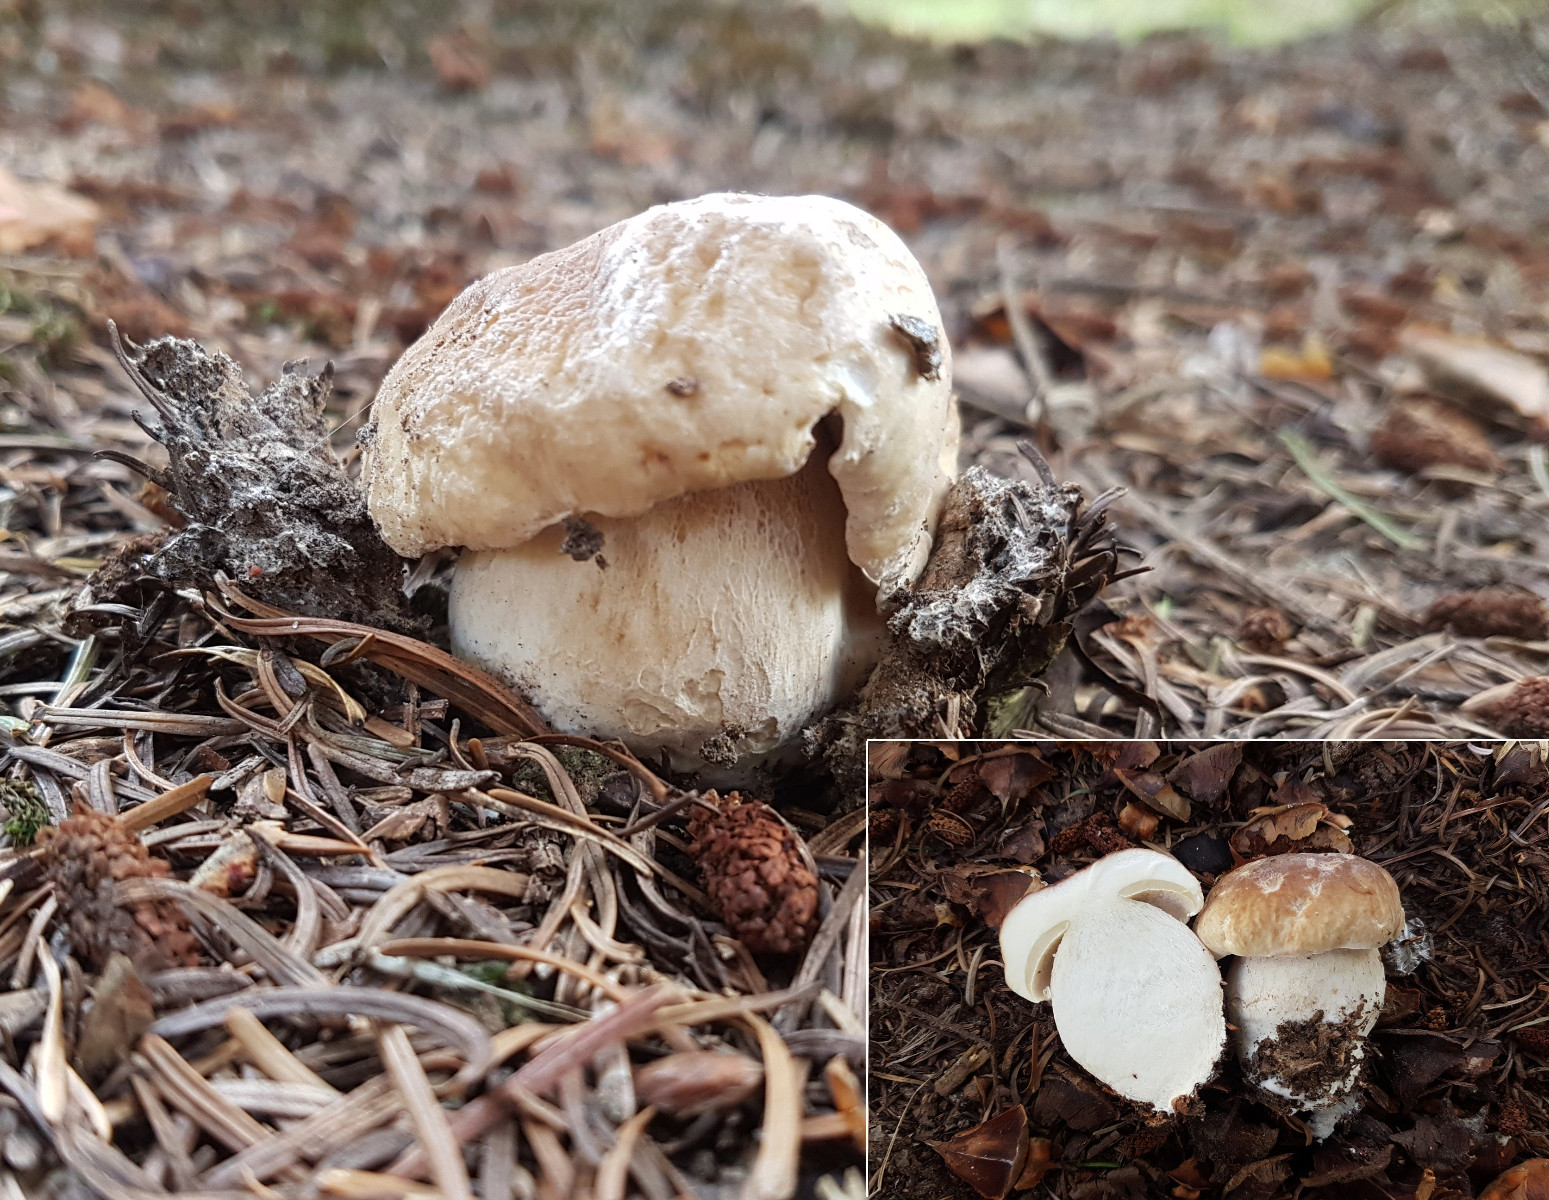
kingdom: Fungi
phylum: Basidiomycota
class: Agaricomycetes
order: Boletales
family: Boletaceae
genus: Boletus
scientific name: Boletus edulis
